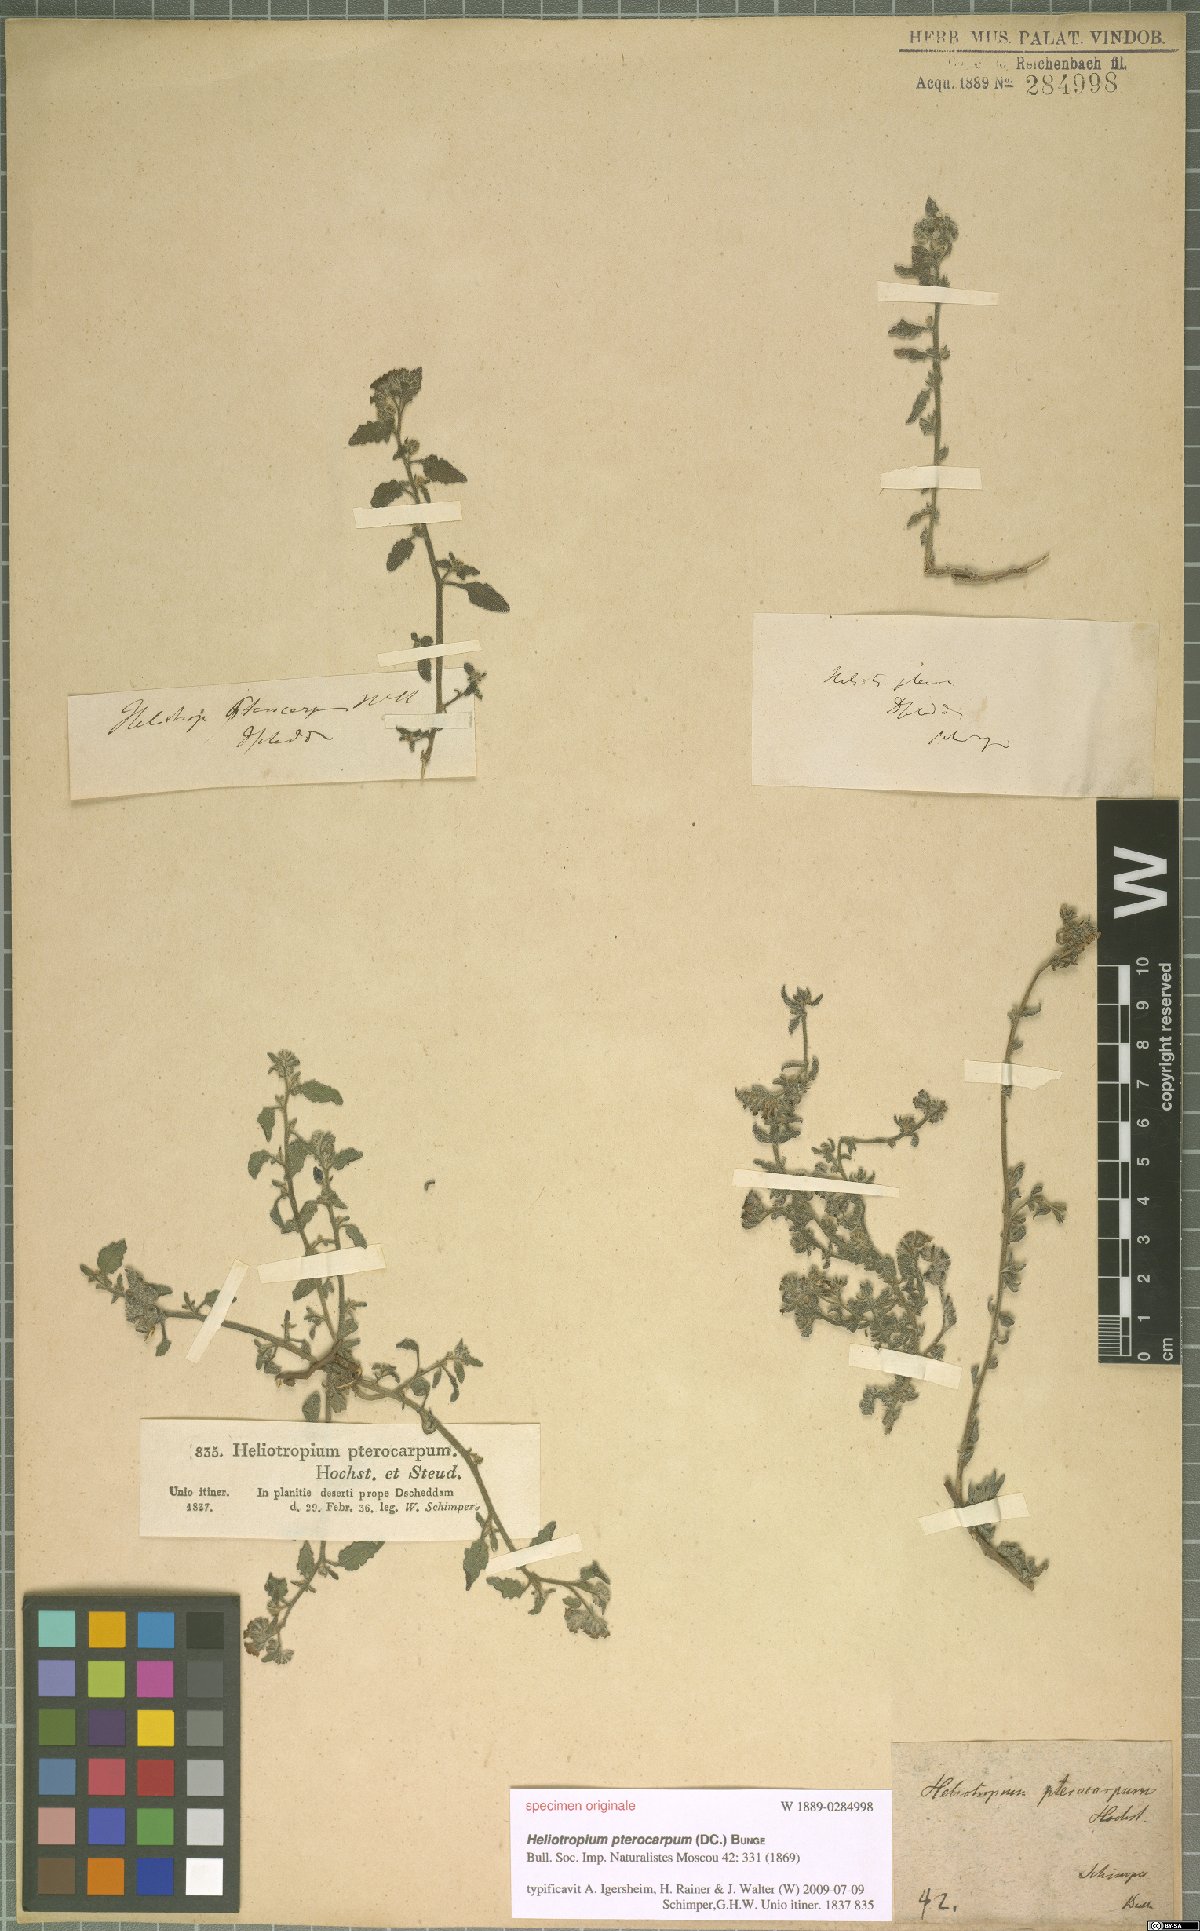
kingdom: Plantae
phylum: Tracheophyta
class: Magnoliopsida
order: Boraginales
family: Heliotropiaceae
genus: Heliotropium
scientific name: Heliotropium pterocarpum
